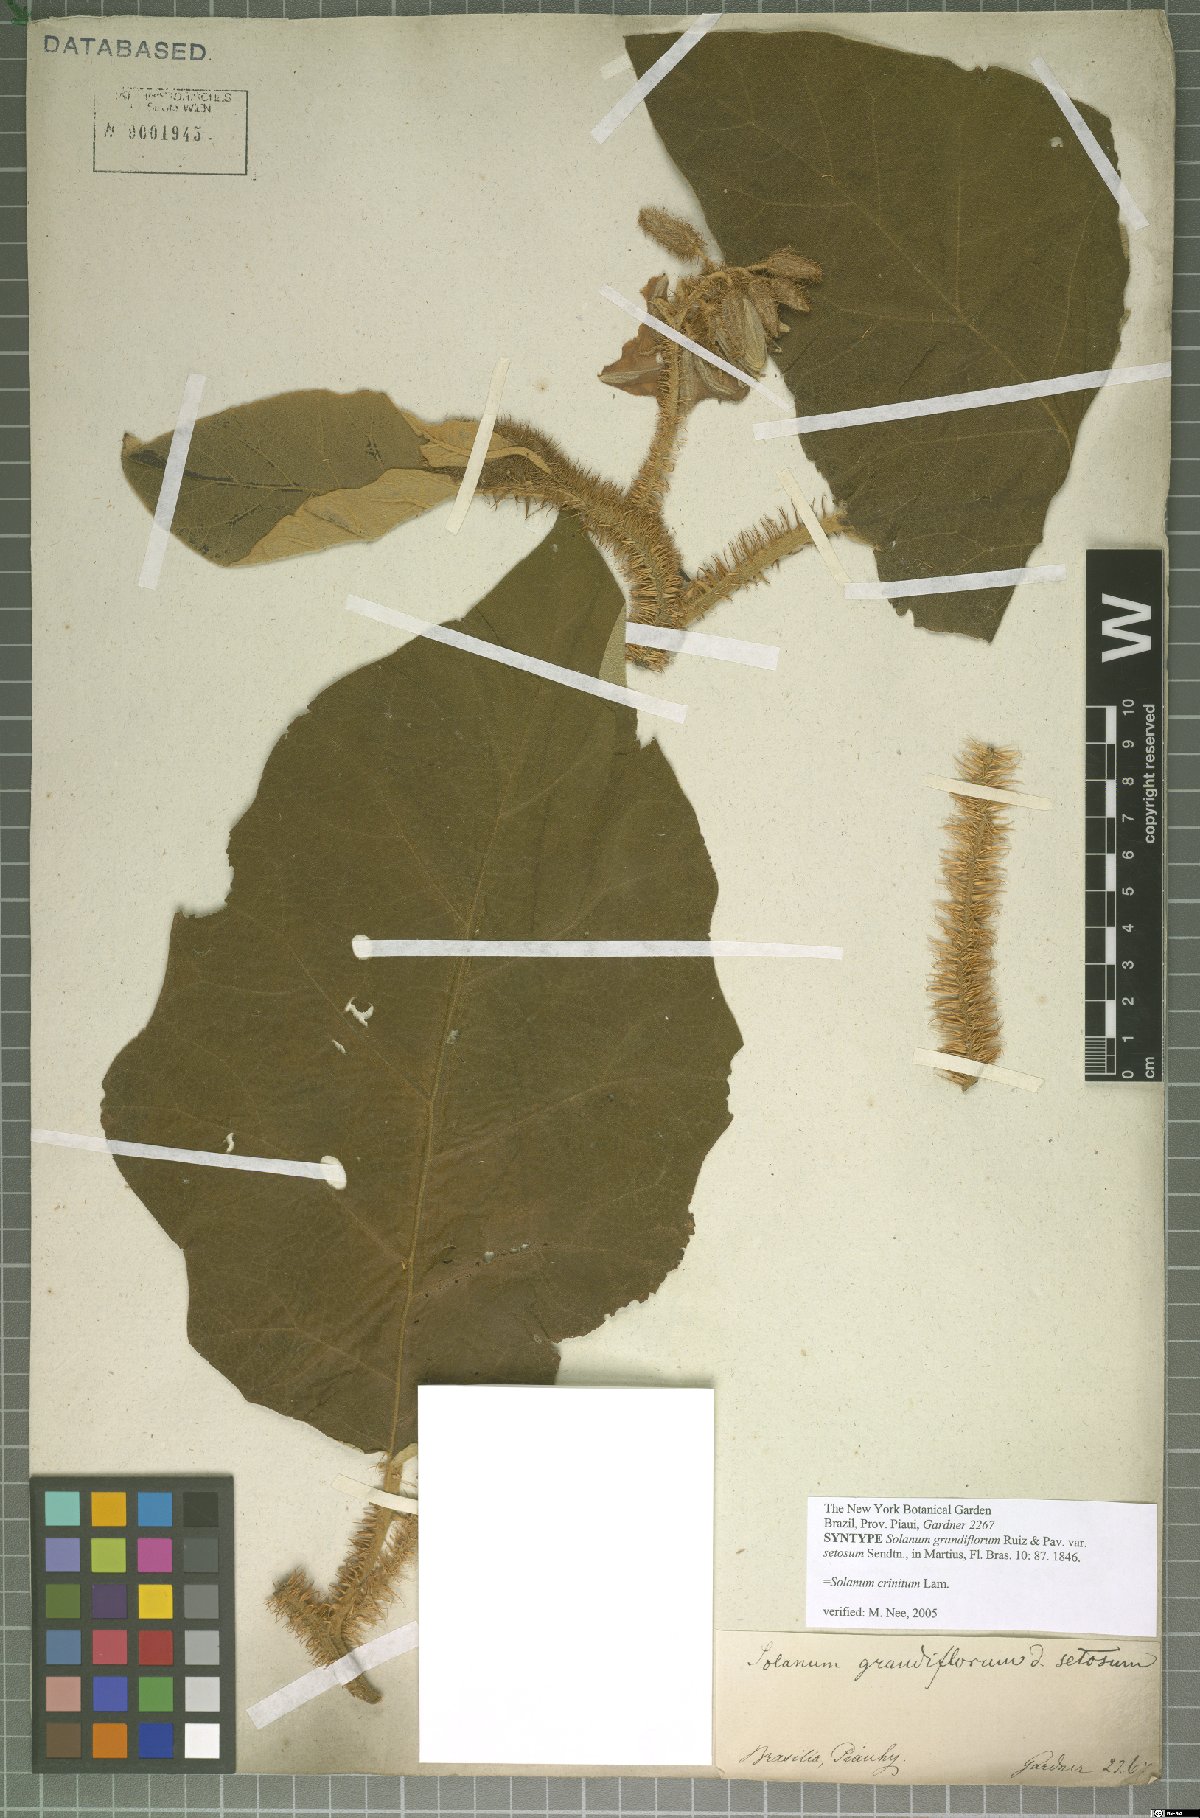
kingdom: Plantae
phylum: Tracheophyta
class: Magnoliopsida
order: Solanales
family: Solanaceae
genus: Solanum
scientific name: Solanum crinitum
